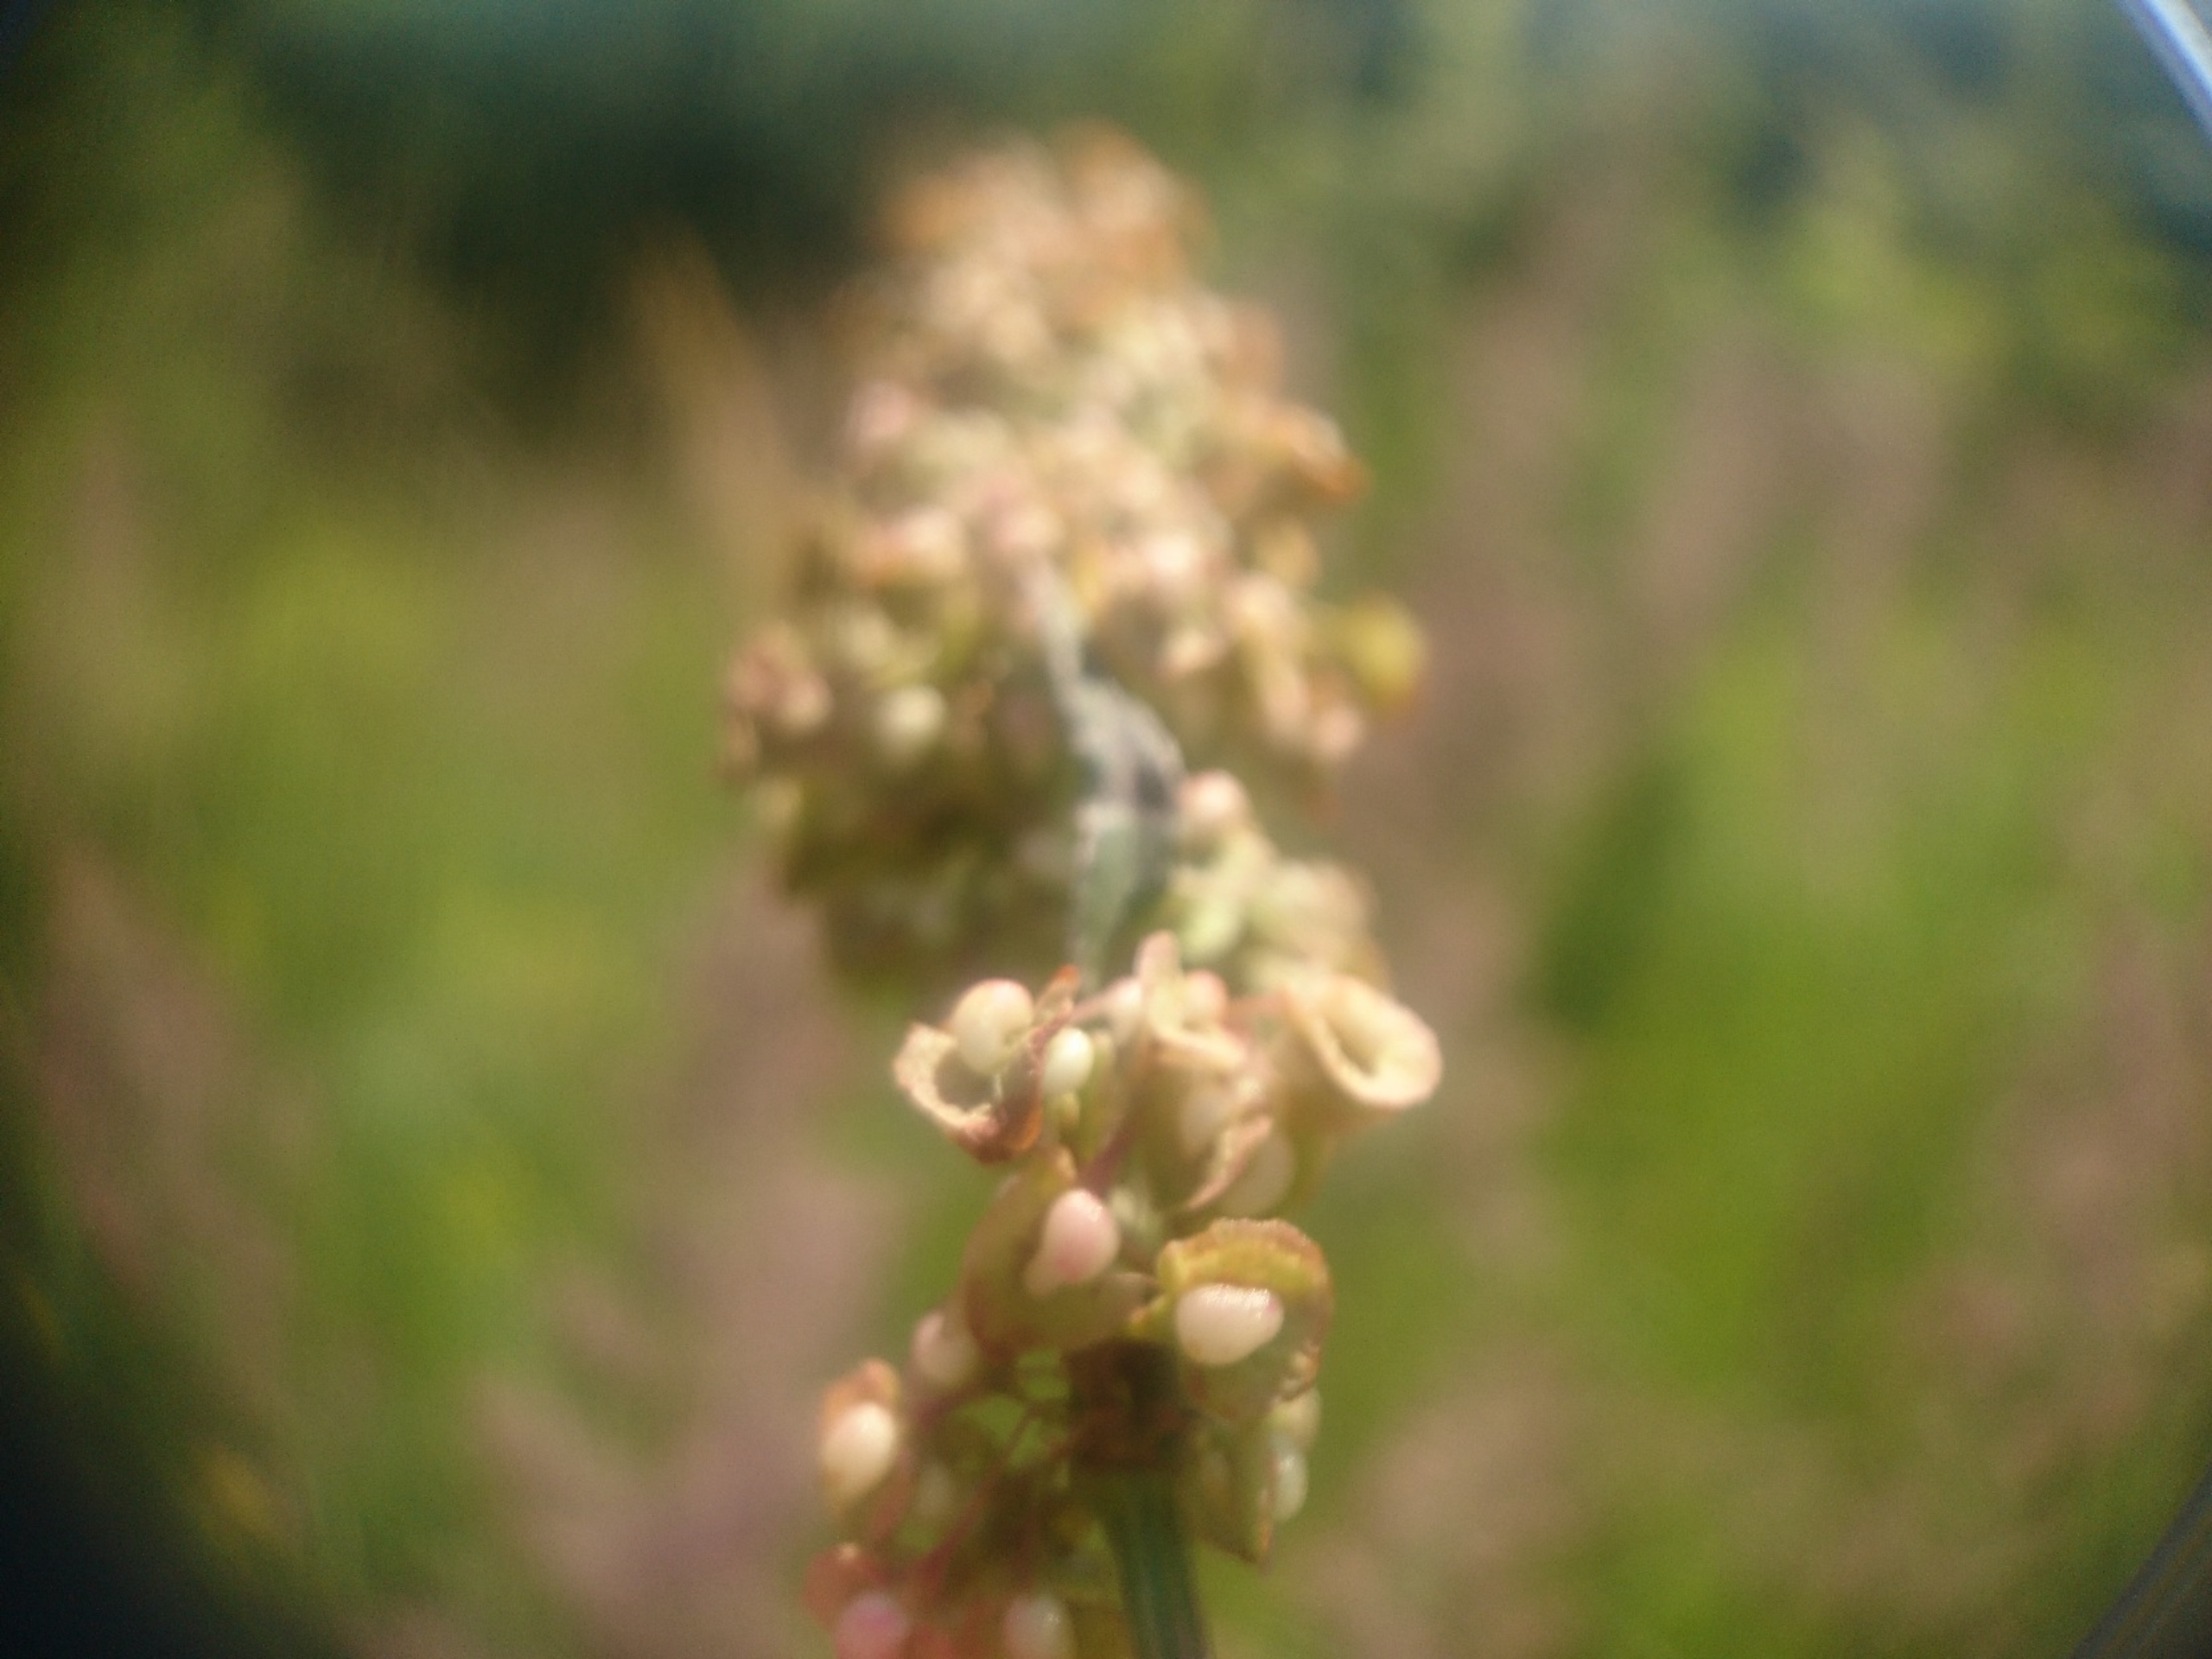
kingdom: Plantae
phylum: Tracheophyta
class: Magnoliopsida
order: Caryophyllales
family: Polygonaceae
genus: Rumex
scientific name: Rumex crispus
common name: Kruset skræppe
